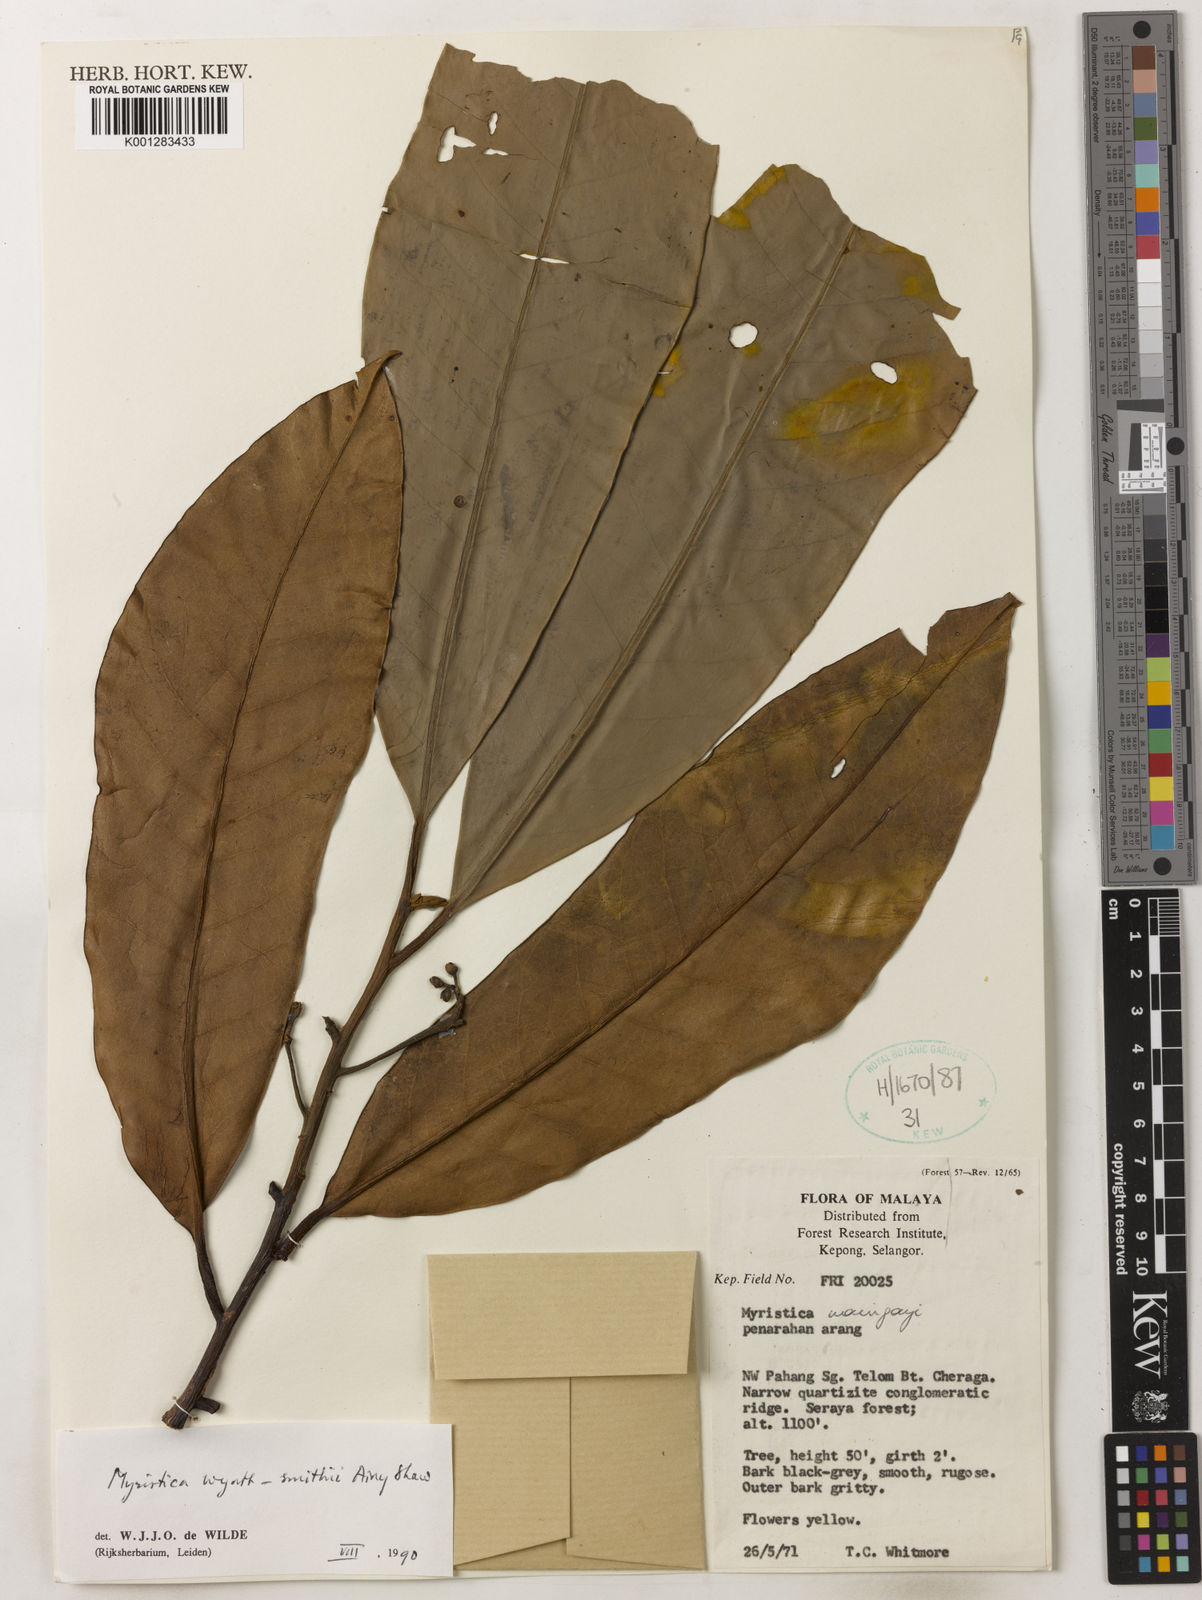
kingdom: Plantae
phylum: Tracheophyta
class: Magnoliopsida
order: Magnoliales
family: Myristicaceae
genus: Myristica
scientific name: Myristica wyatt-smithii
